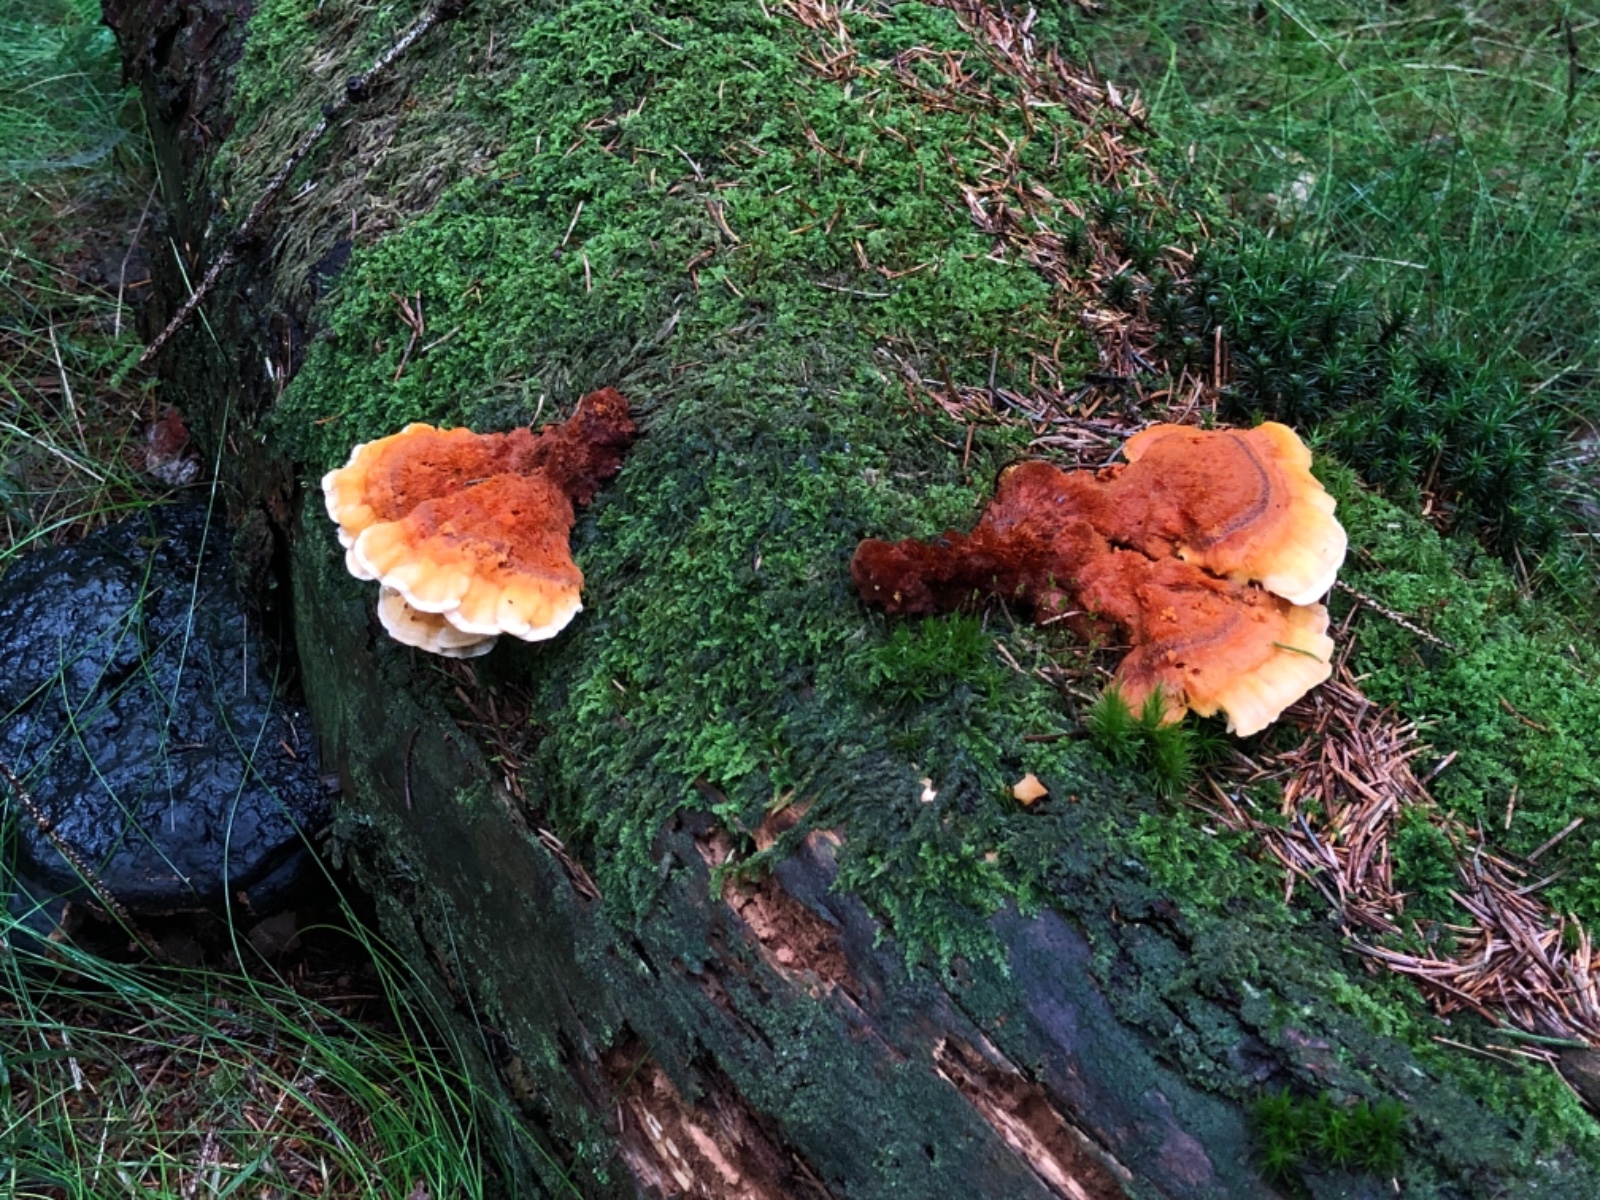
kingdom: Fungi
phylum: Basidiomycota
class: Agaricomycetes
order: Polyporales
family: Pycnoporellaceae
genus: Pycnoporellus
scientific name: Pycnoporellus fulgens
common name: flammeporesvamp
